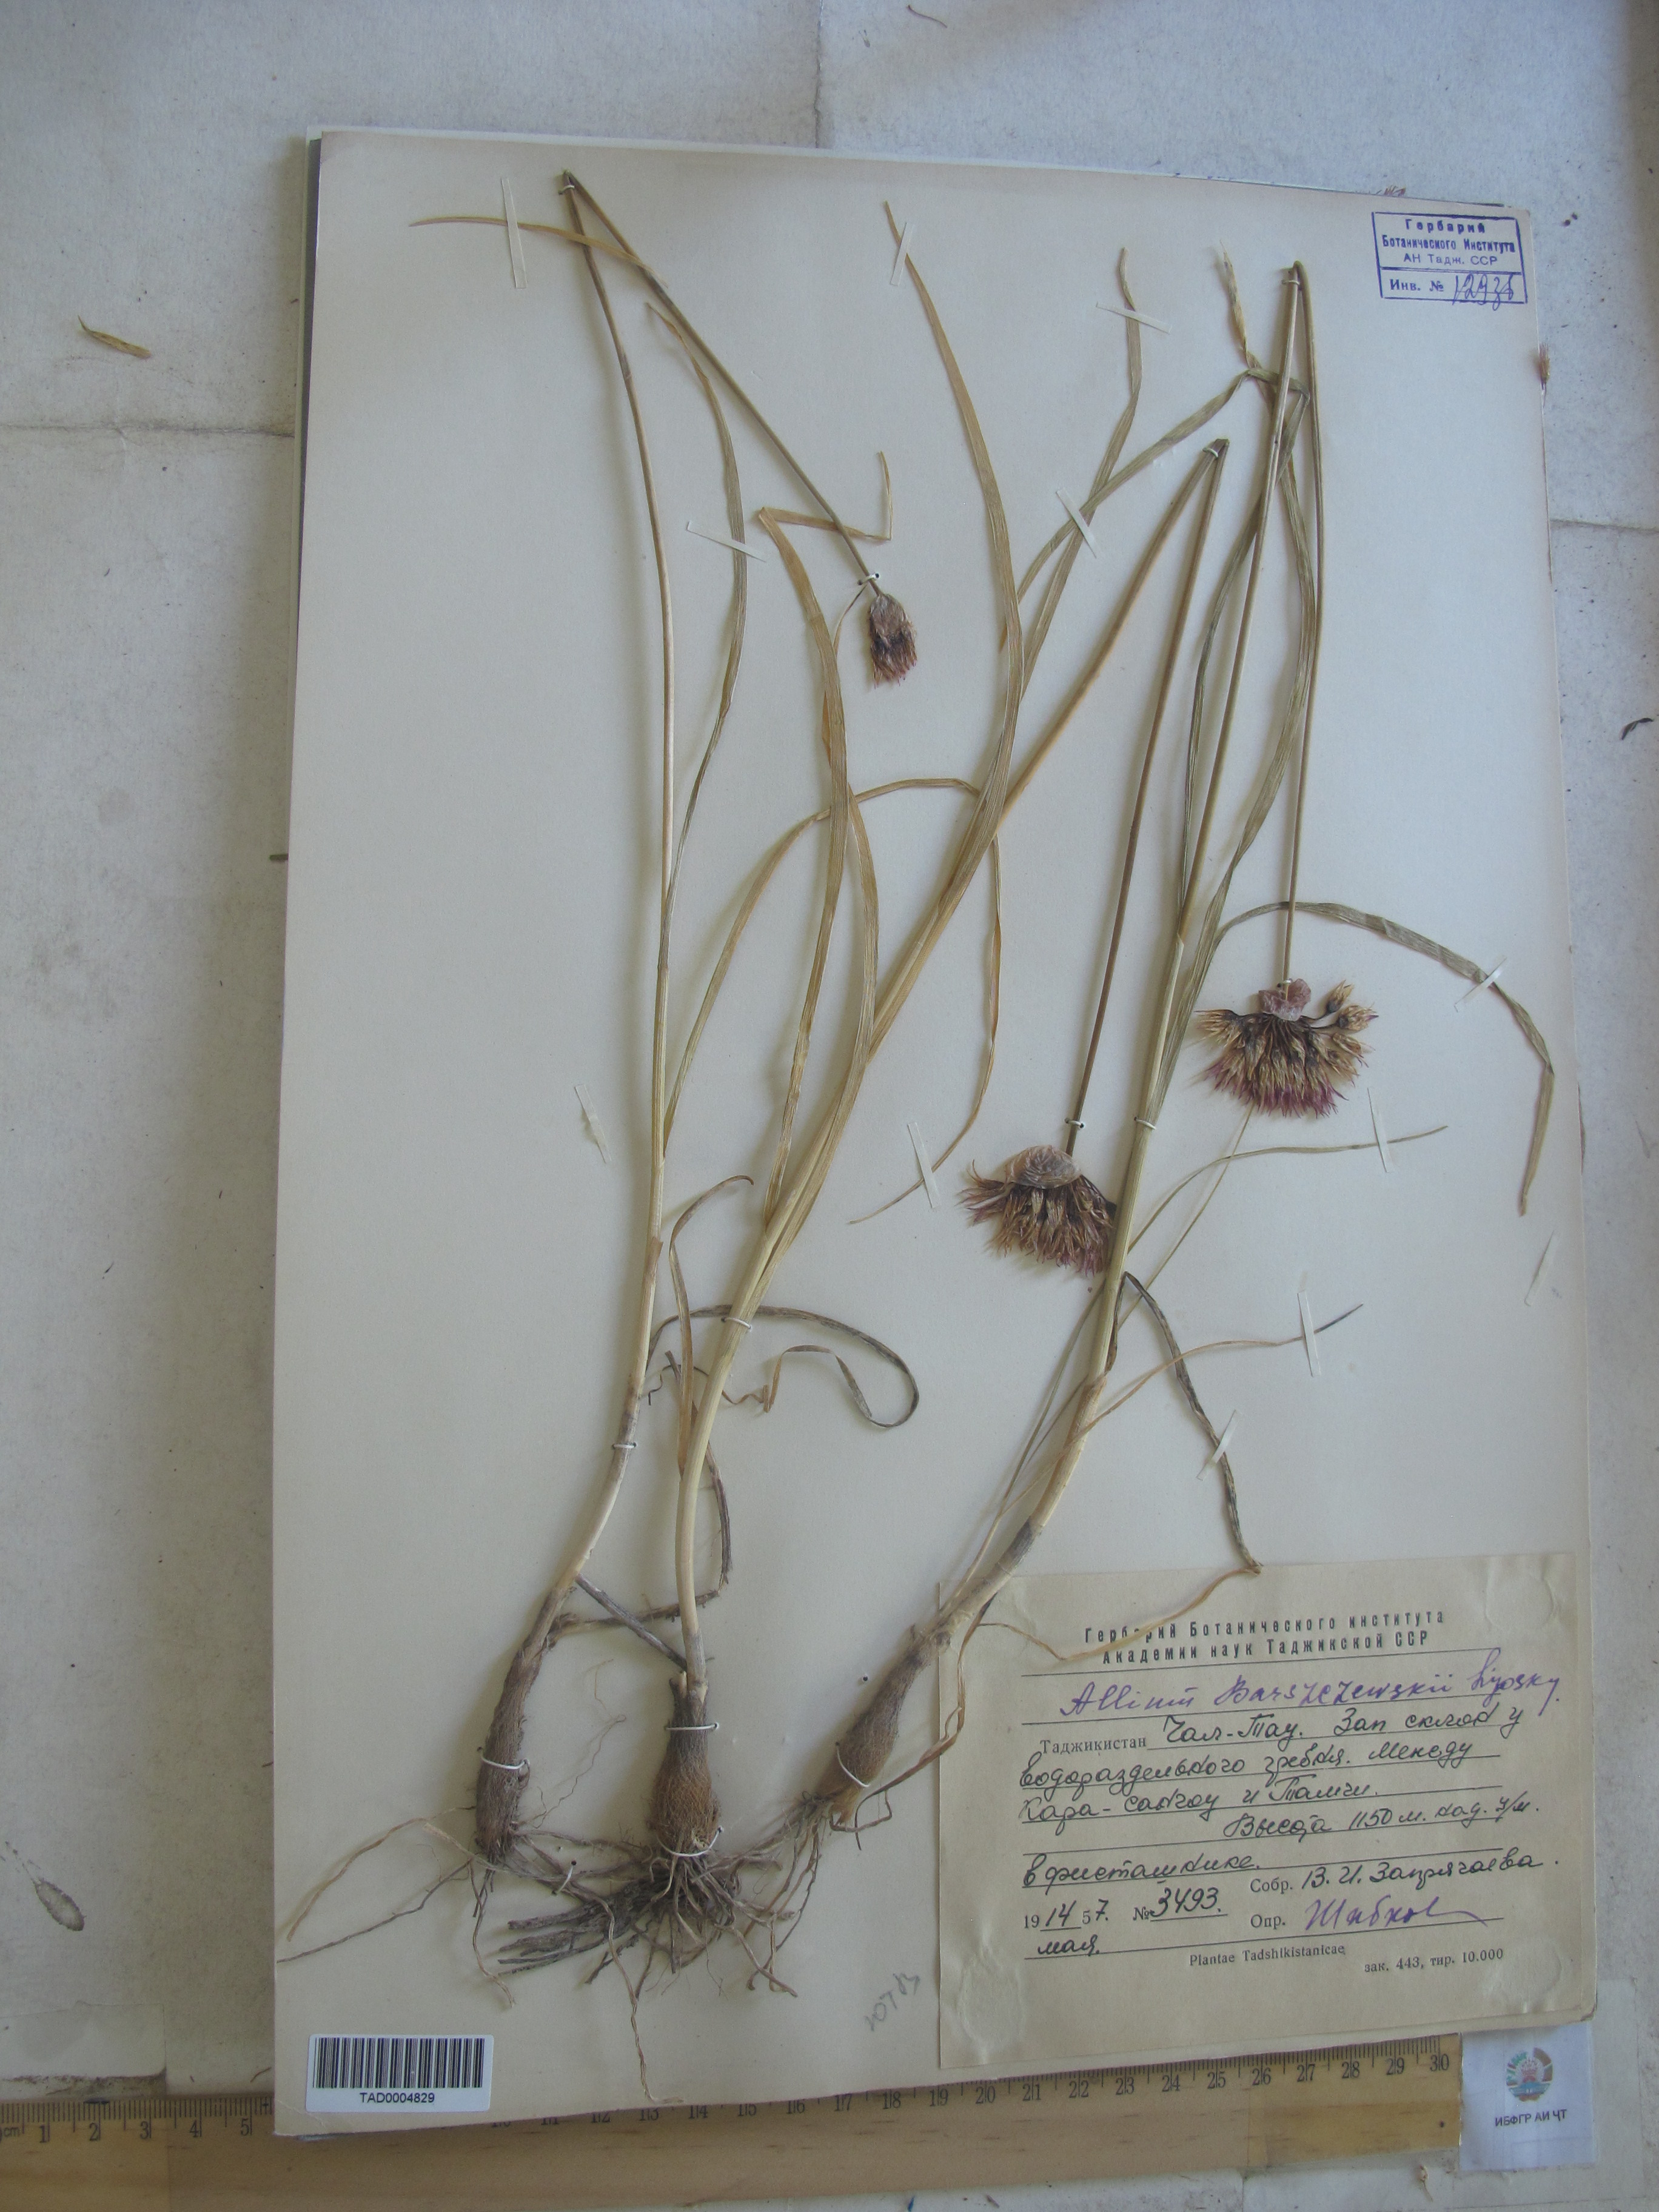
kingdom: Plantae
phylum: Tracheophyta
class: Liliopsida
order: Asparagales
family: Amaryllidaceae
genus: Allium
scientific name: Allium barsczewskii
